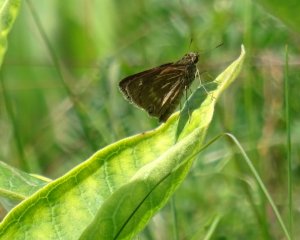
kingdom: Animalia
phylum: Arthropoda
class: Insecta
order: Lepidoptera
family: Hesperiidae
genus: Polites
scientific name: Polites
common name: Long Dash Skipper
